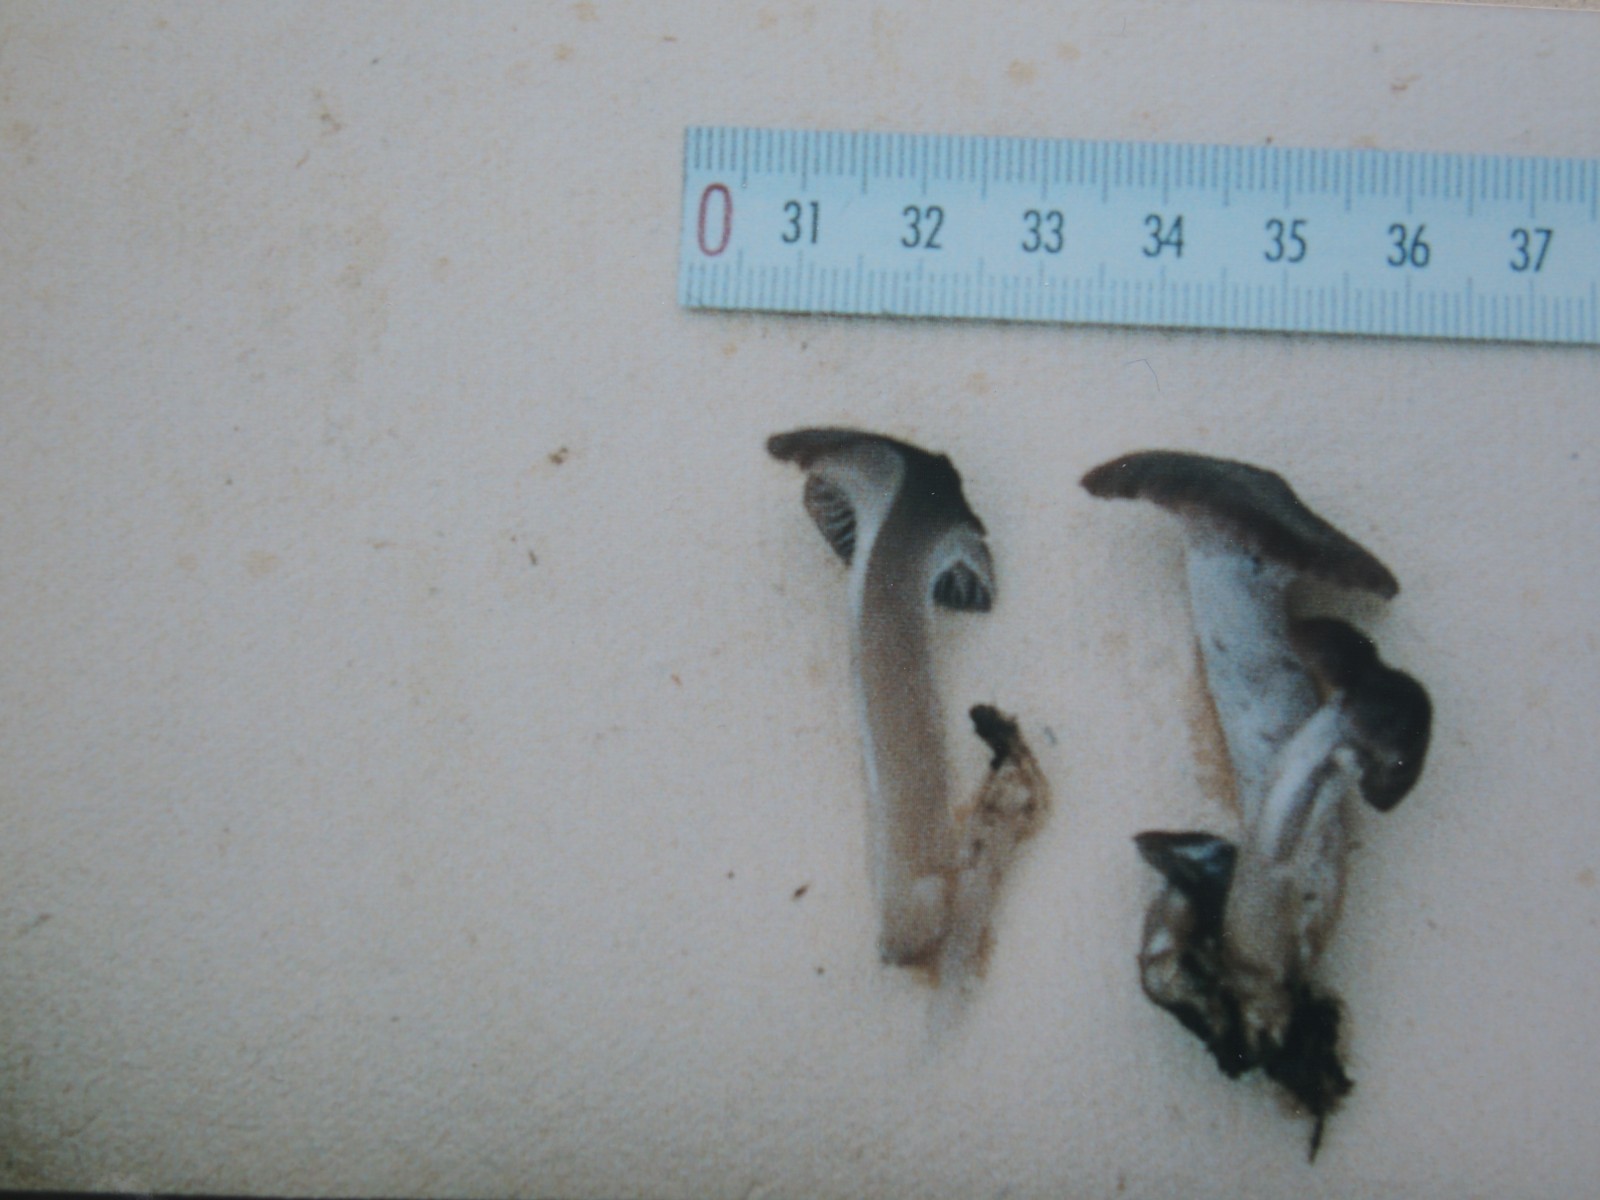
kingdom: Fungi
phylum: Basidiomycota
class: Agaricomycetes
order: Agaricales
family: Hygrophoraceae
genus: Cuphophyllus
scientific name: Cuphophyllus
